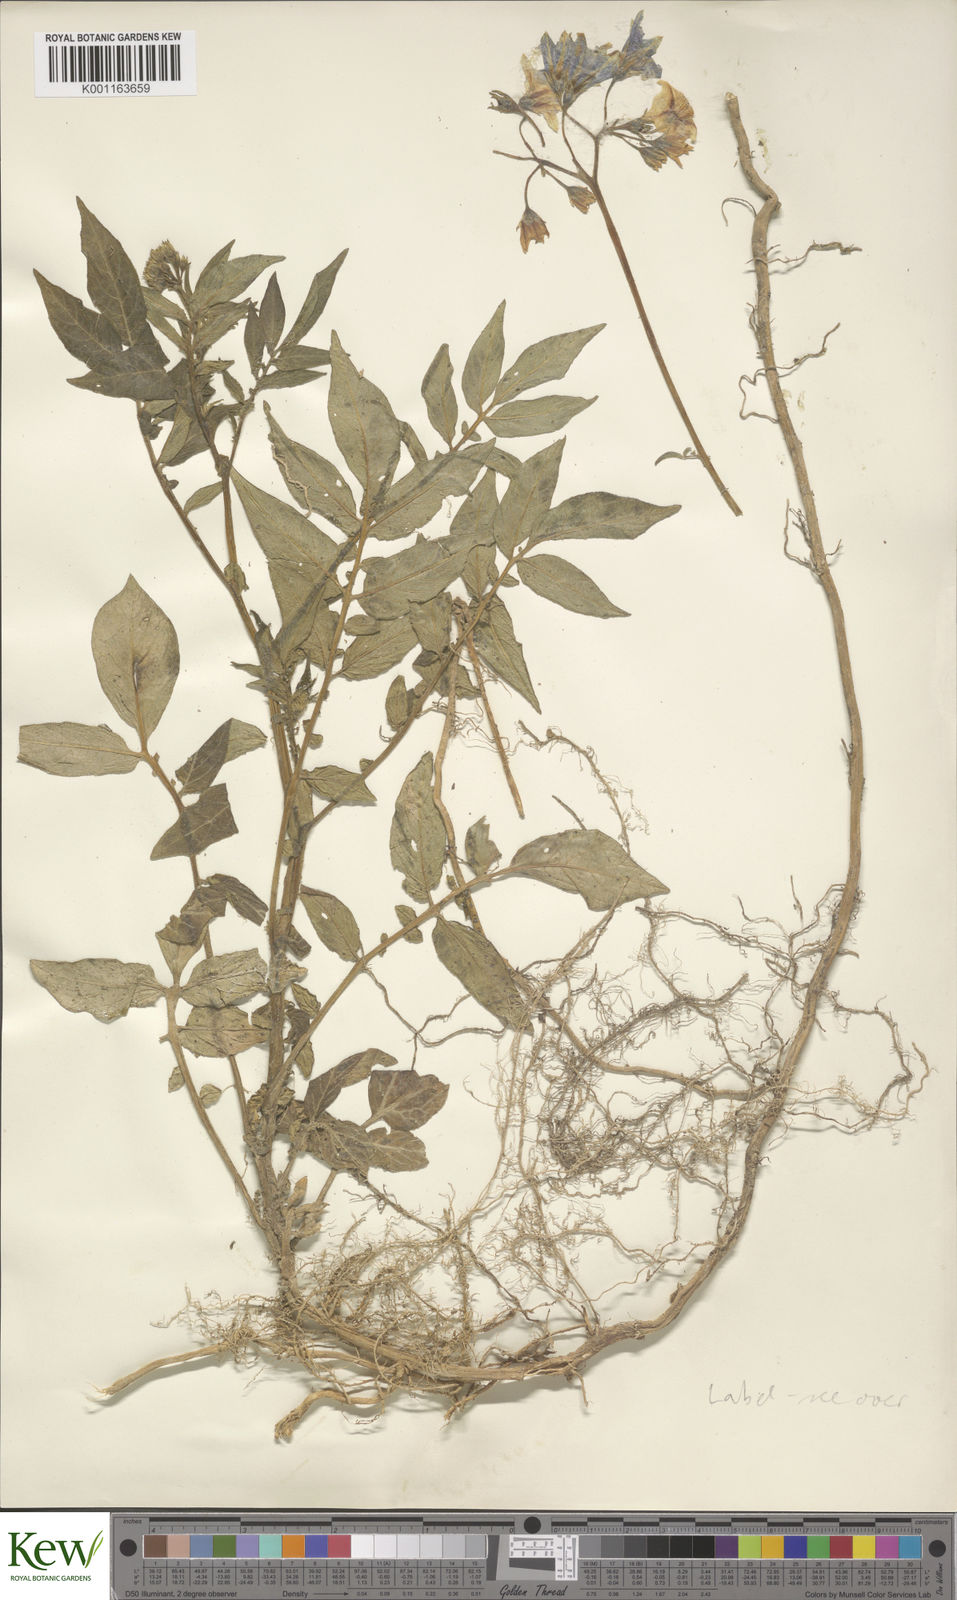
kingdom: Plantae
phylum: Tracheophyta
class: Magnoliopsida
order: Solanales
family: Solanaceae
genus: Solanum
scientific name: Solanum colombianum
